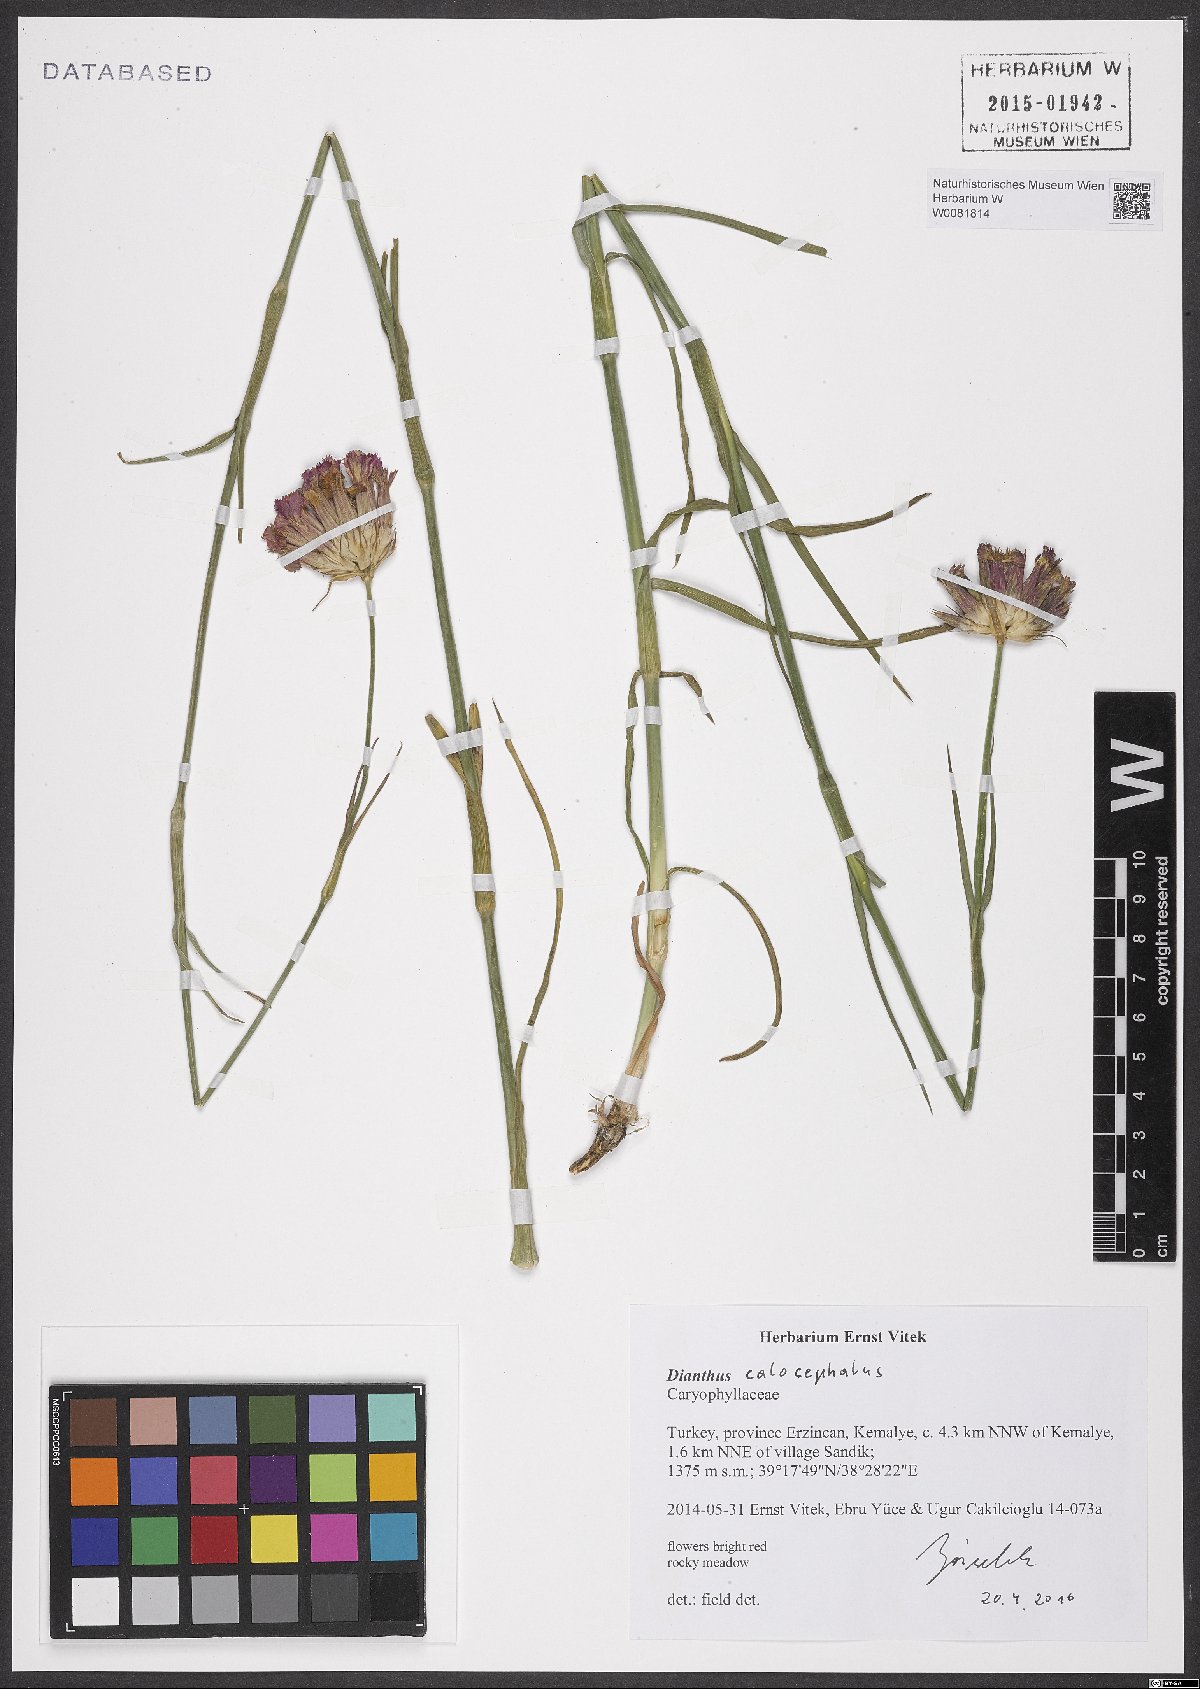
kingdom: Plantae
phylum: Tracheophyta
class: Magnoliopsida
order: Caryophyllales
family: Caryophyllaceae
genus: Dianthus
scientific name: Dianthus cruentus
